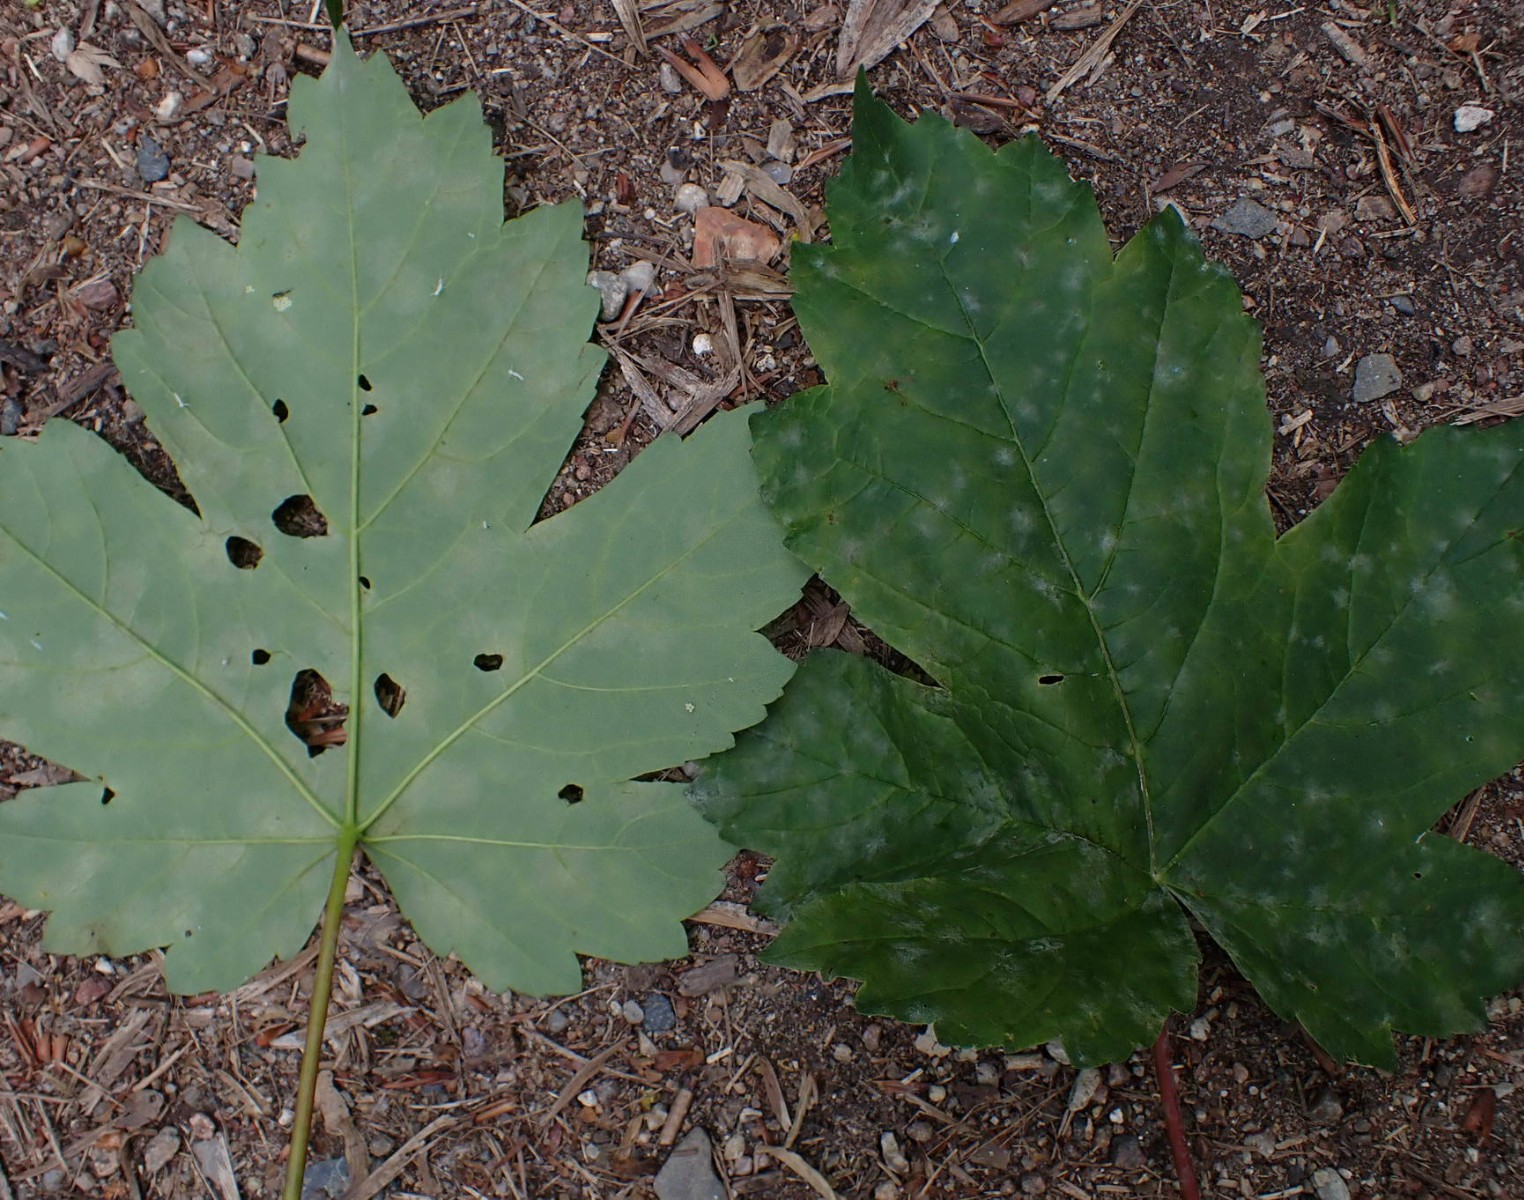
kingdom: Fungi
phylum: Ascomycota
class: Leotiomycetes
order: Helotiales
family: Erysiphaceae
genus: Sawadaea
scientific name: Sawadaea bicornis
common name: Maple mildew
